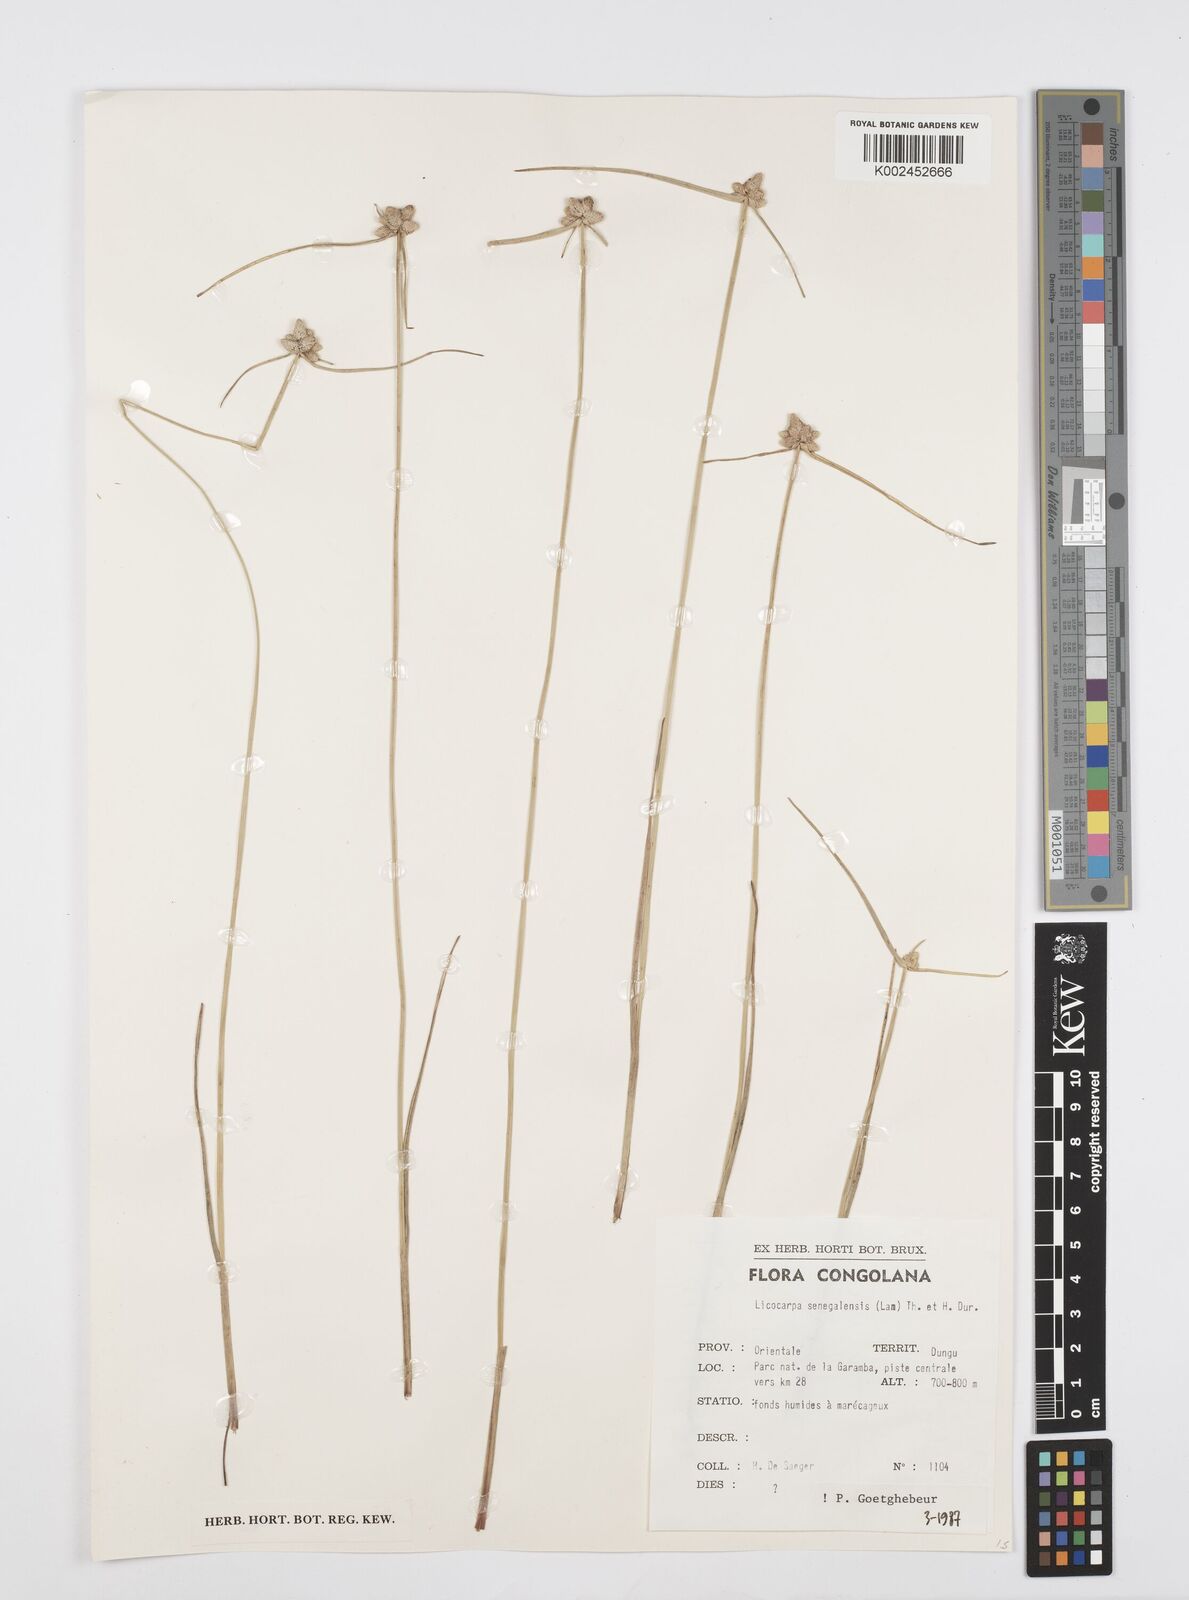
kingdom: Plantae
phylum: Tracheophyta
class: Liliopsida
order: Poales
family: Cyperaceae
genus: Cyperus
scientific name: Cyperus albescens
